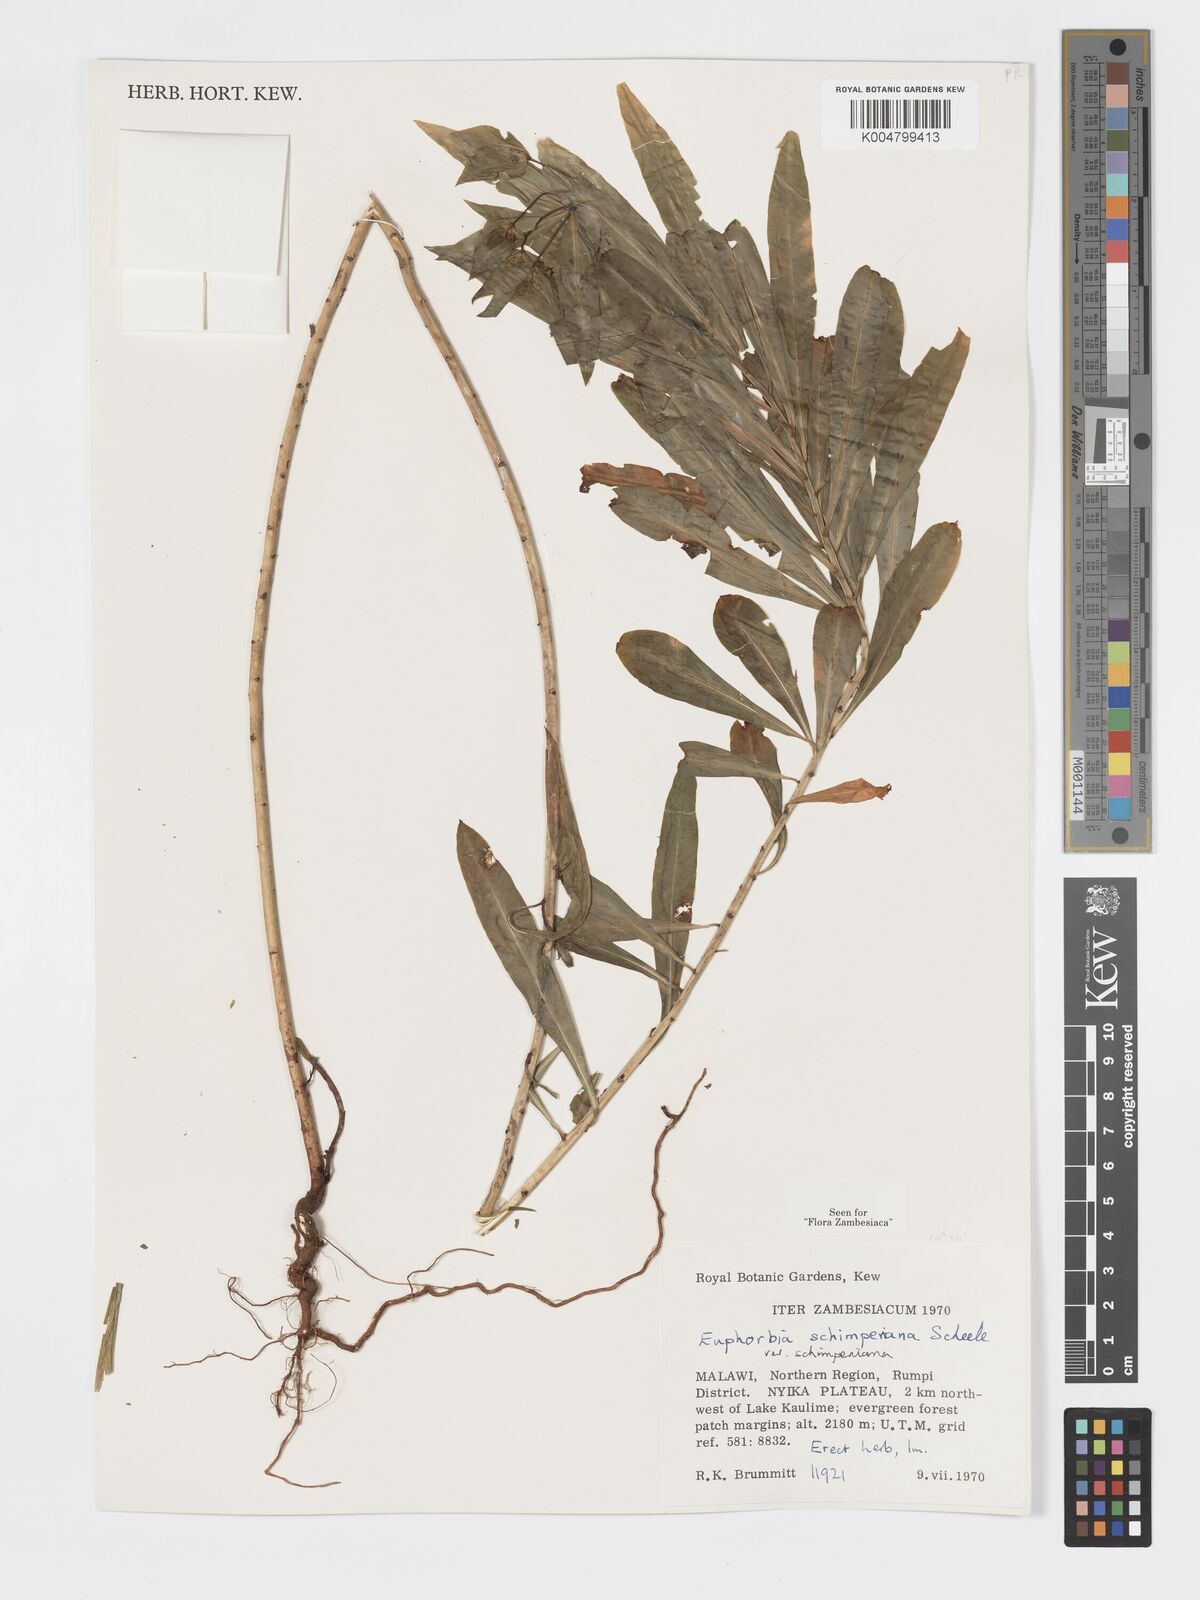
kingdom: Plantae
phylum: Tracheophyta
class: Magnoliopsida
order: Malpighiales
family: Euphorbiaceae
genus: Euphorbia
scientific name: Euphorbia schimperiana
